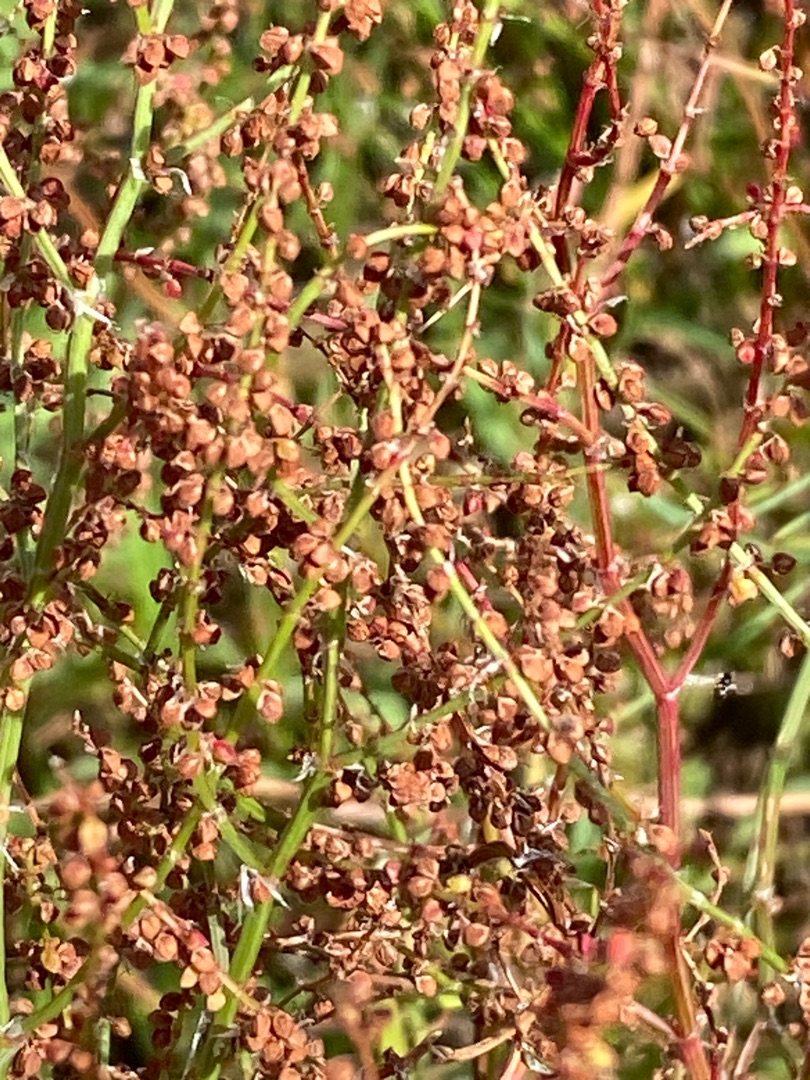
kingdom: Plantae
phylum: Tracheophyta
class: Magnoliopsida
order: Caryophyllales
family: Polygonaceae
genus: Rumex
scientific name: Rumex acetosella
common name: Rødknæ
